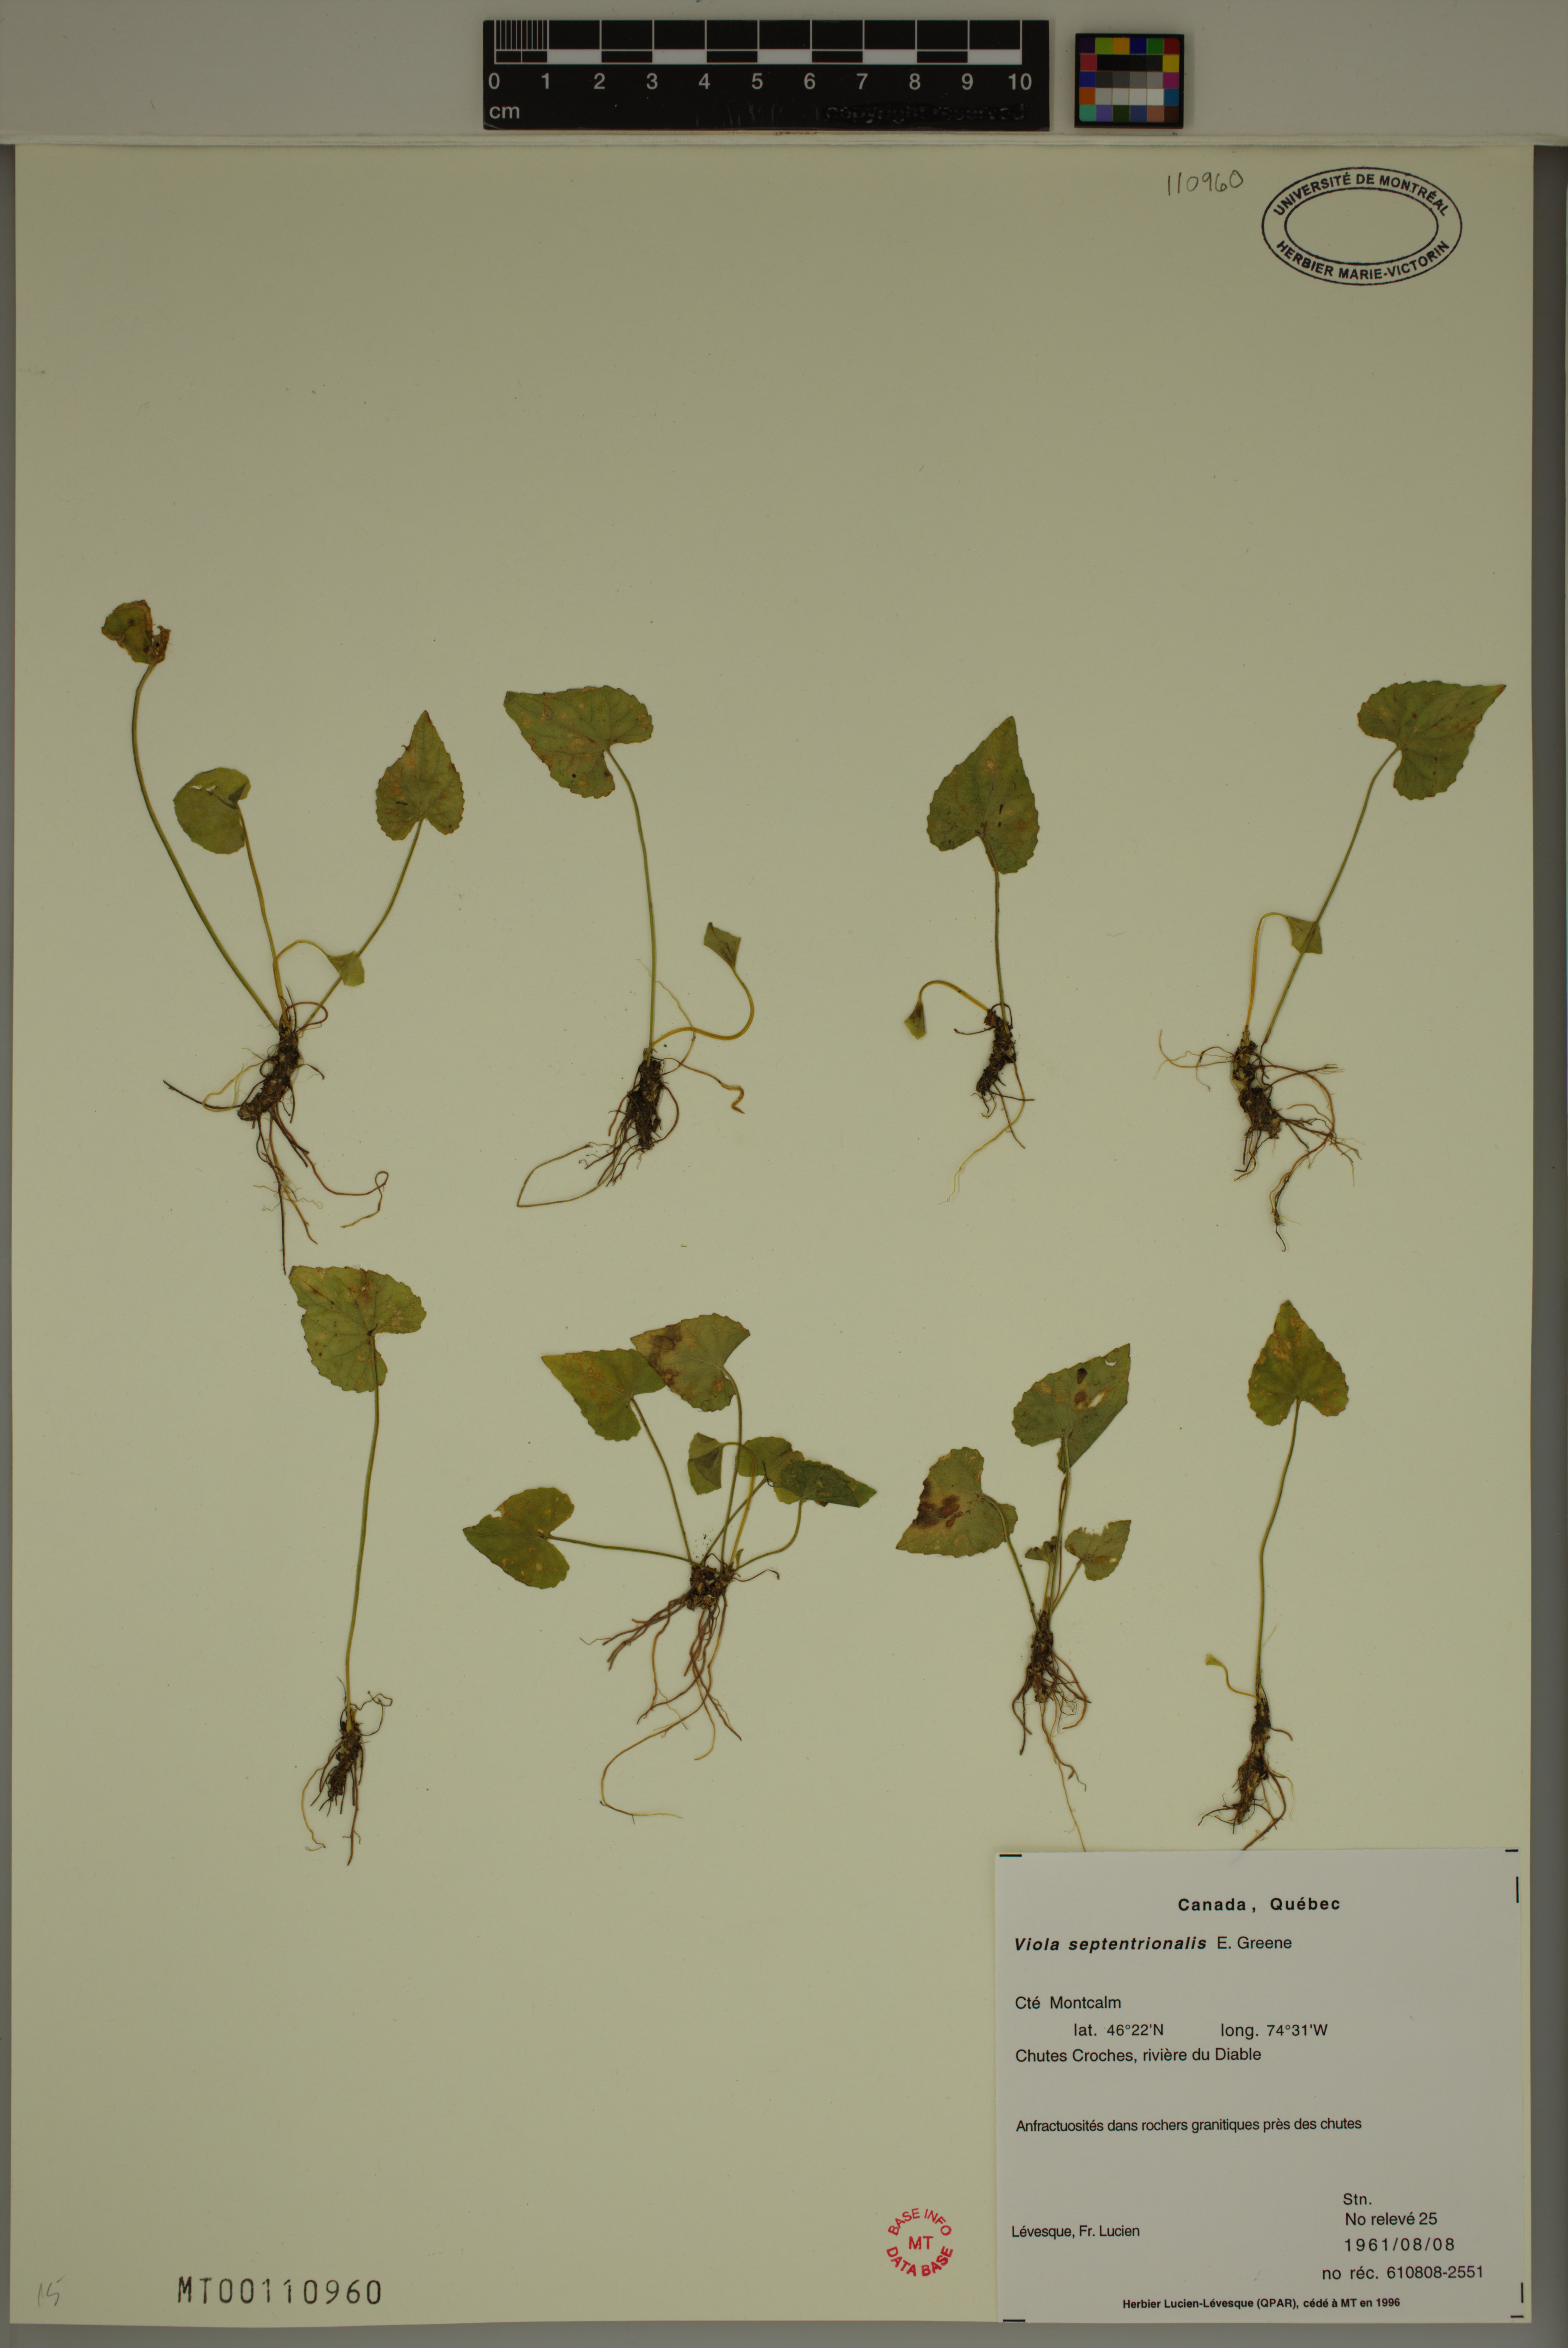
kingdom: Plantae
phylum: Tracheophyta
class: Magnoliopsida
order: Malpighiales
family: Violaceae
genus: Viola
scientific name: Viola sororia
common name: Dooryard violet
